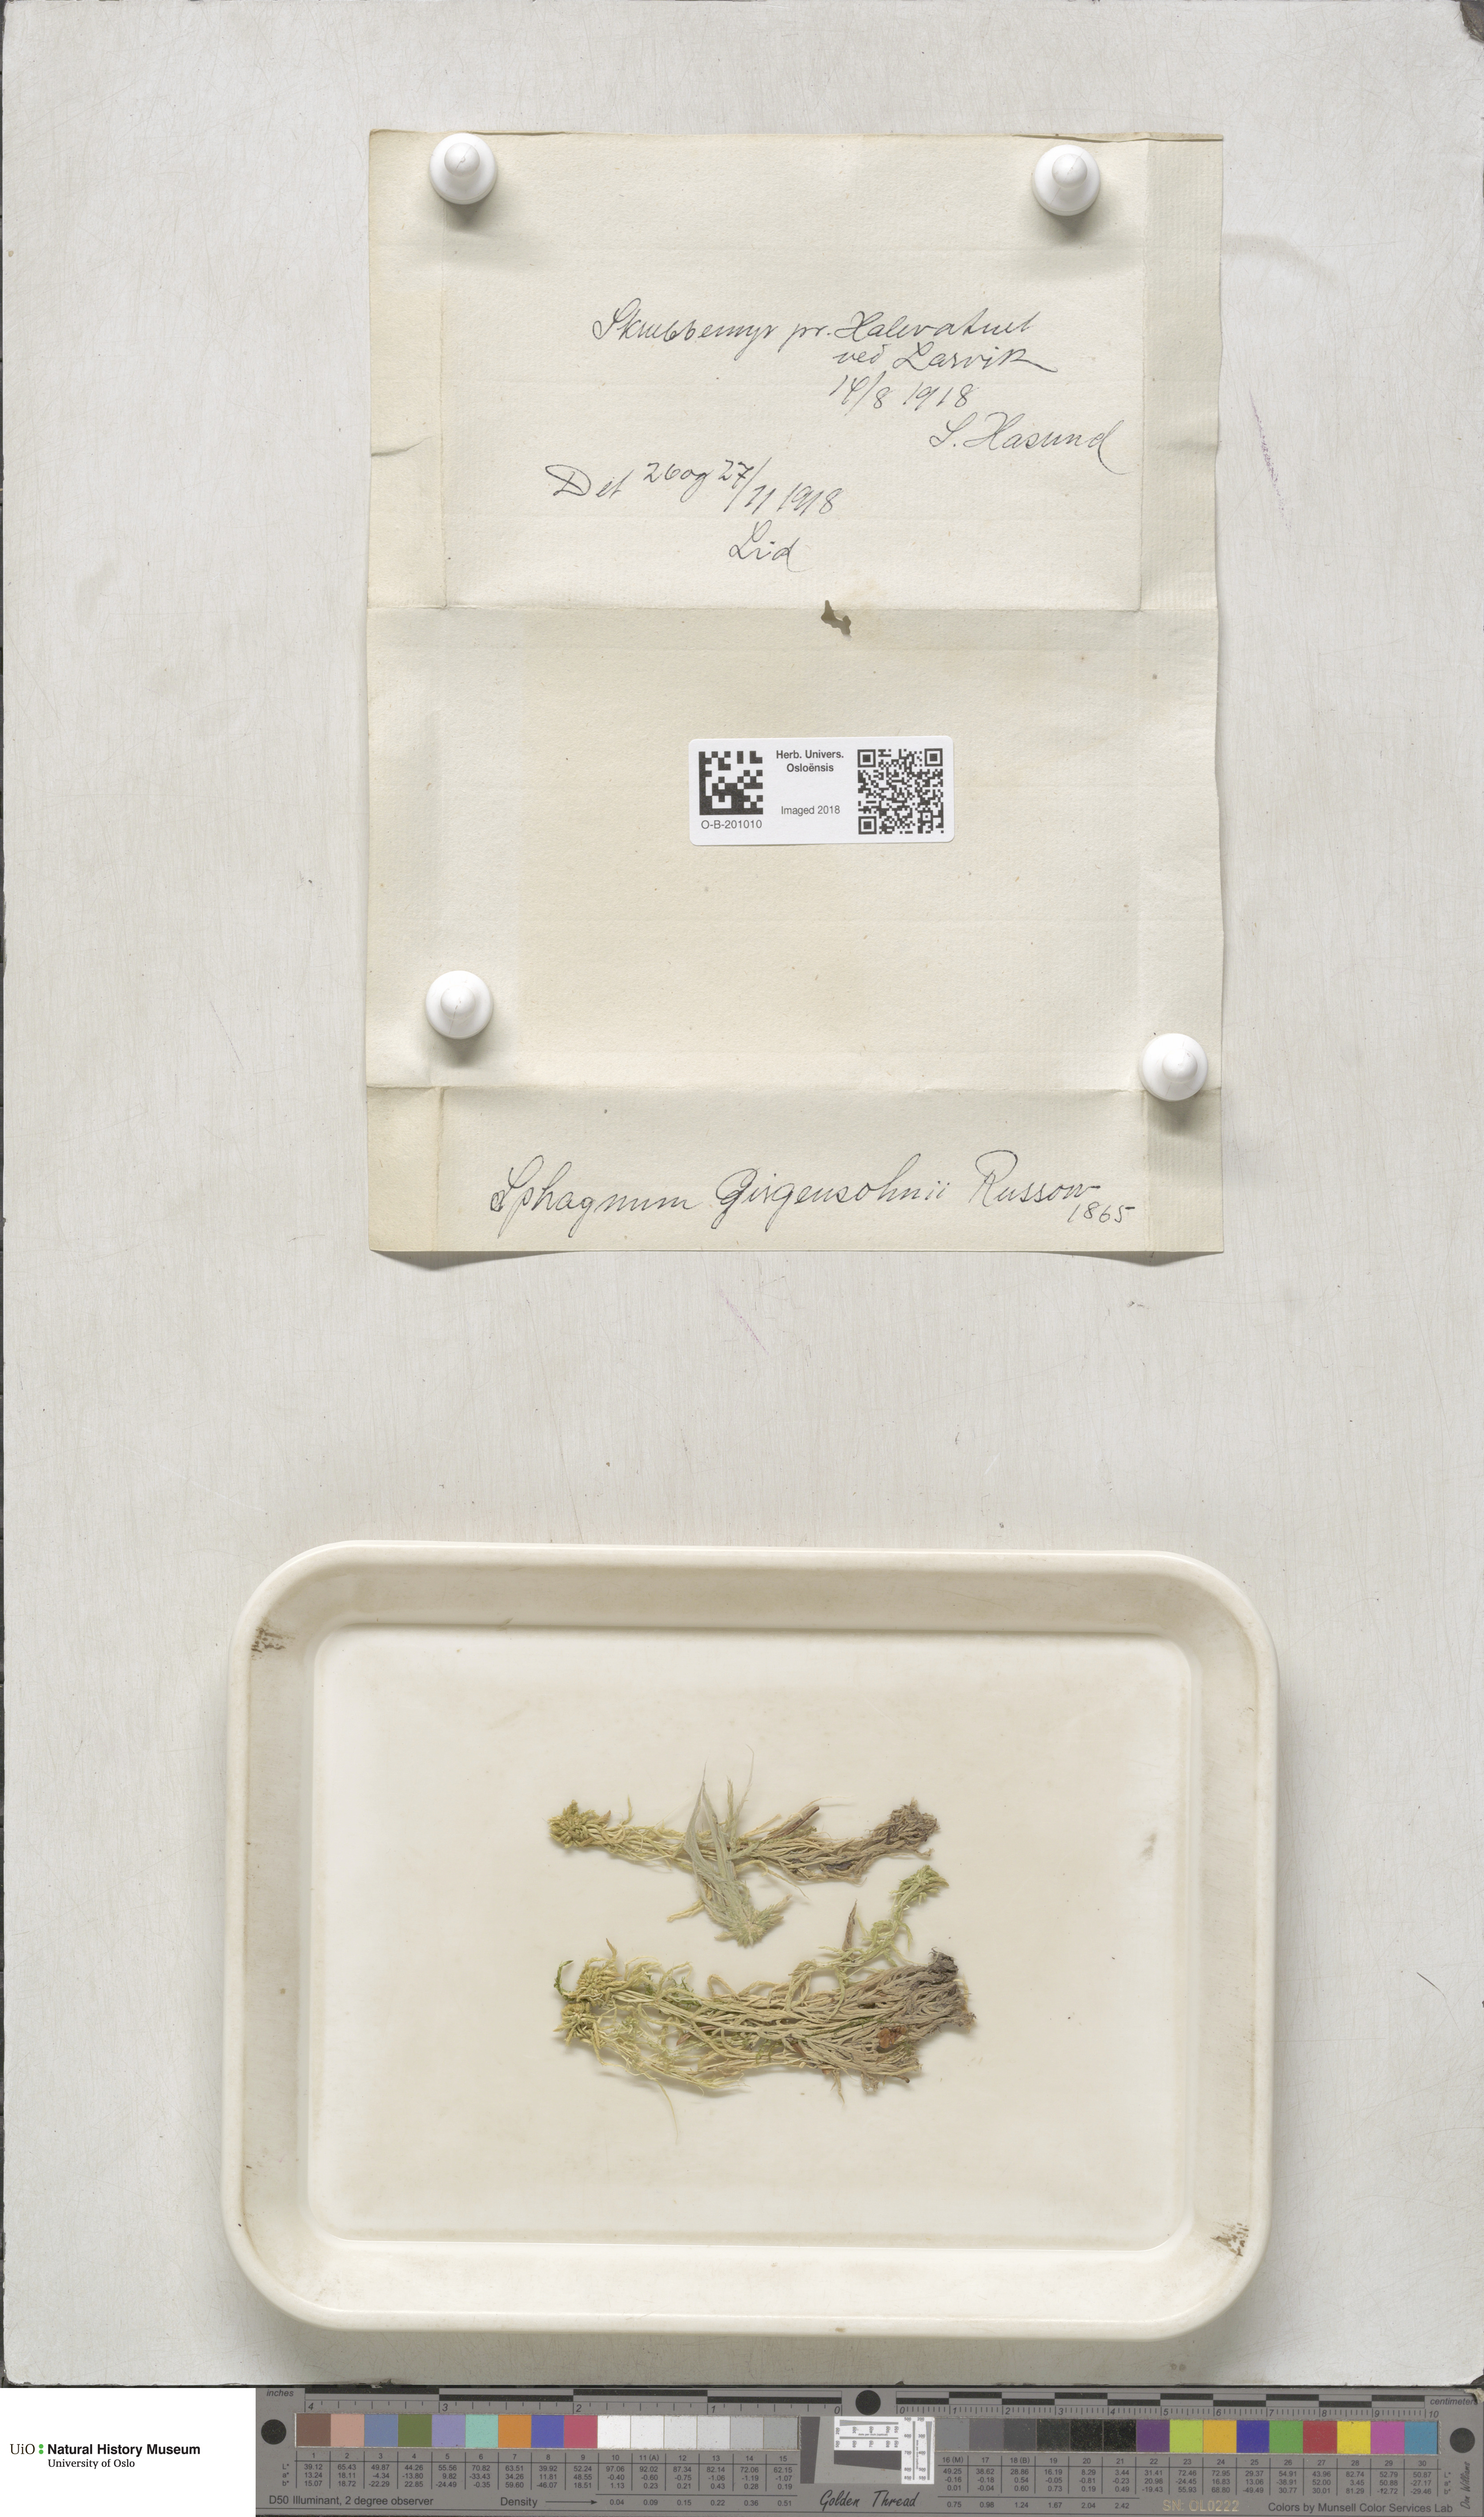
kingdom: Plantae
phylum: Bryophyta
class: Sphagnopsida
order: Sphagnales
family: Sphagnaceae
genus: Sphagnum
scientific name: Sphagnum girgensohnii
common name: Girgensohn's peat moss
